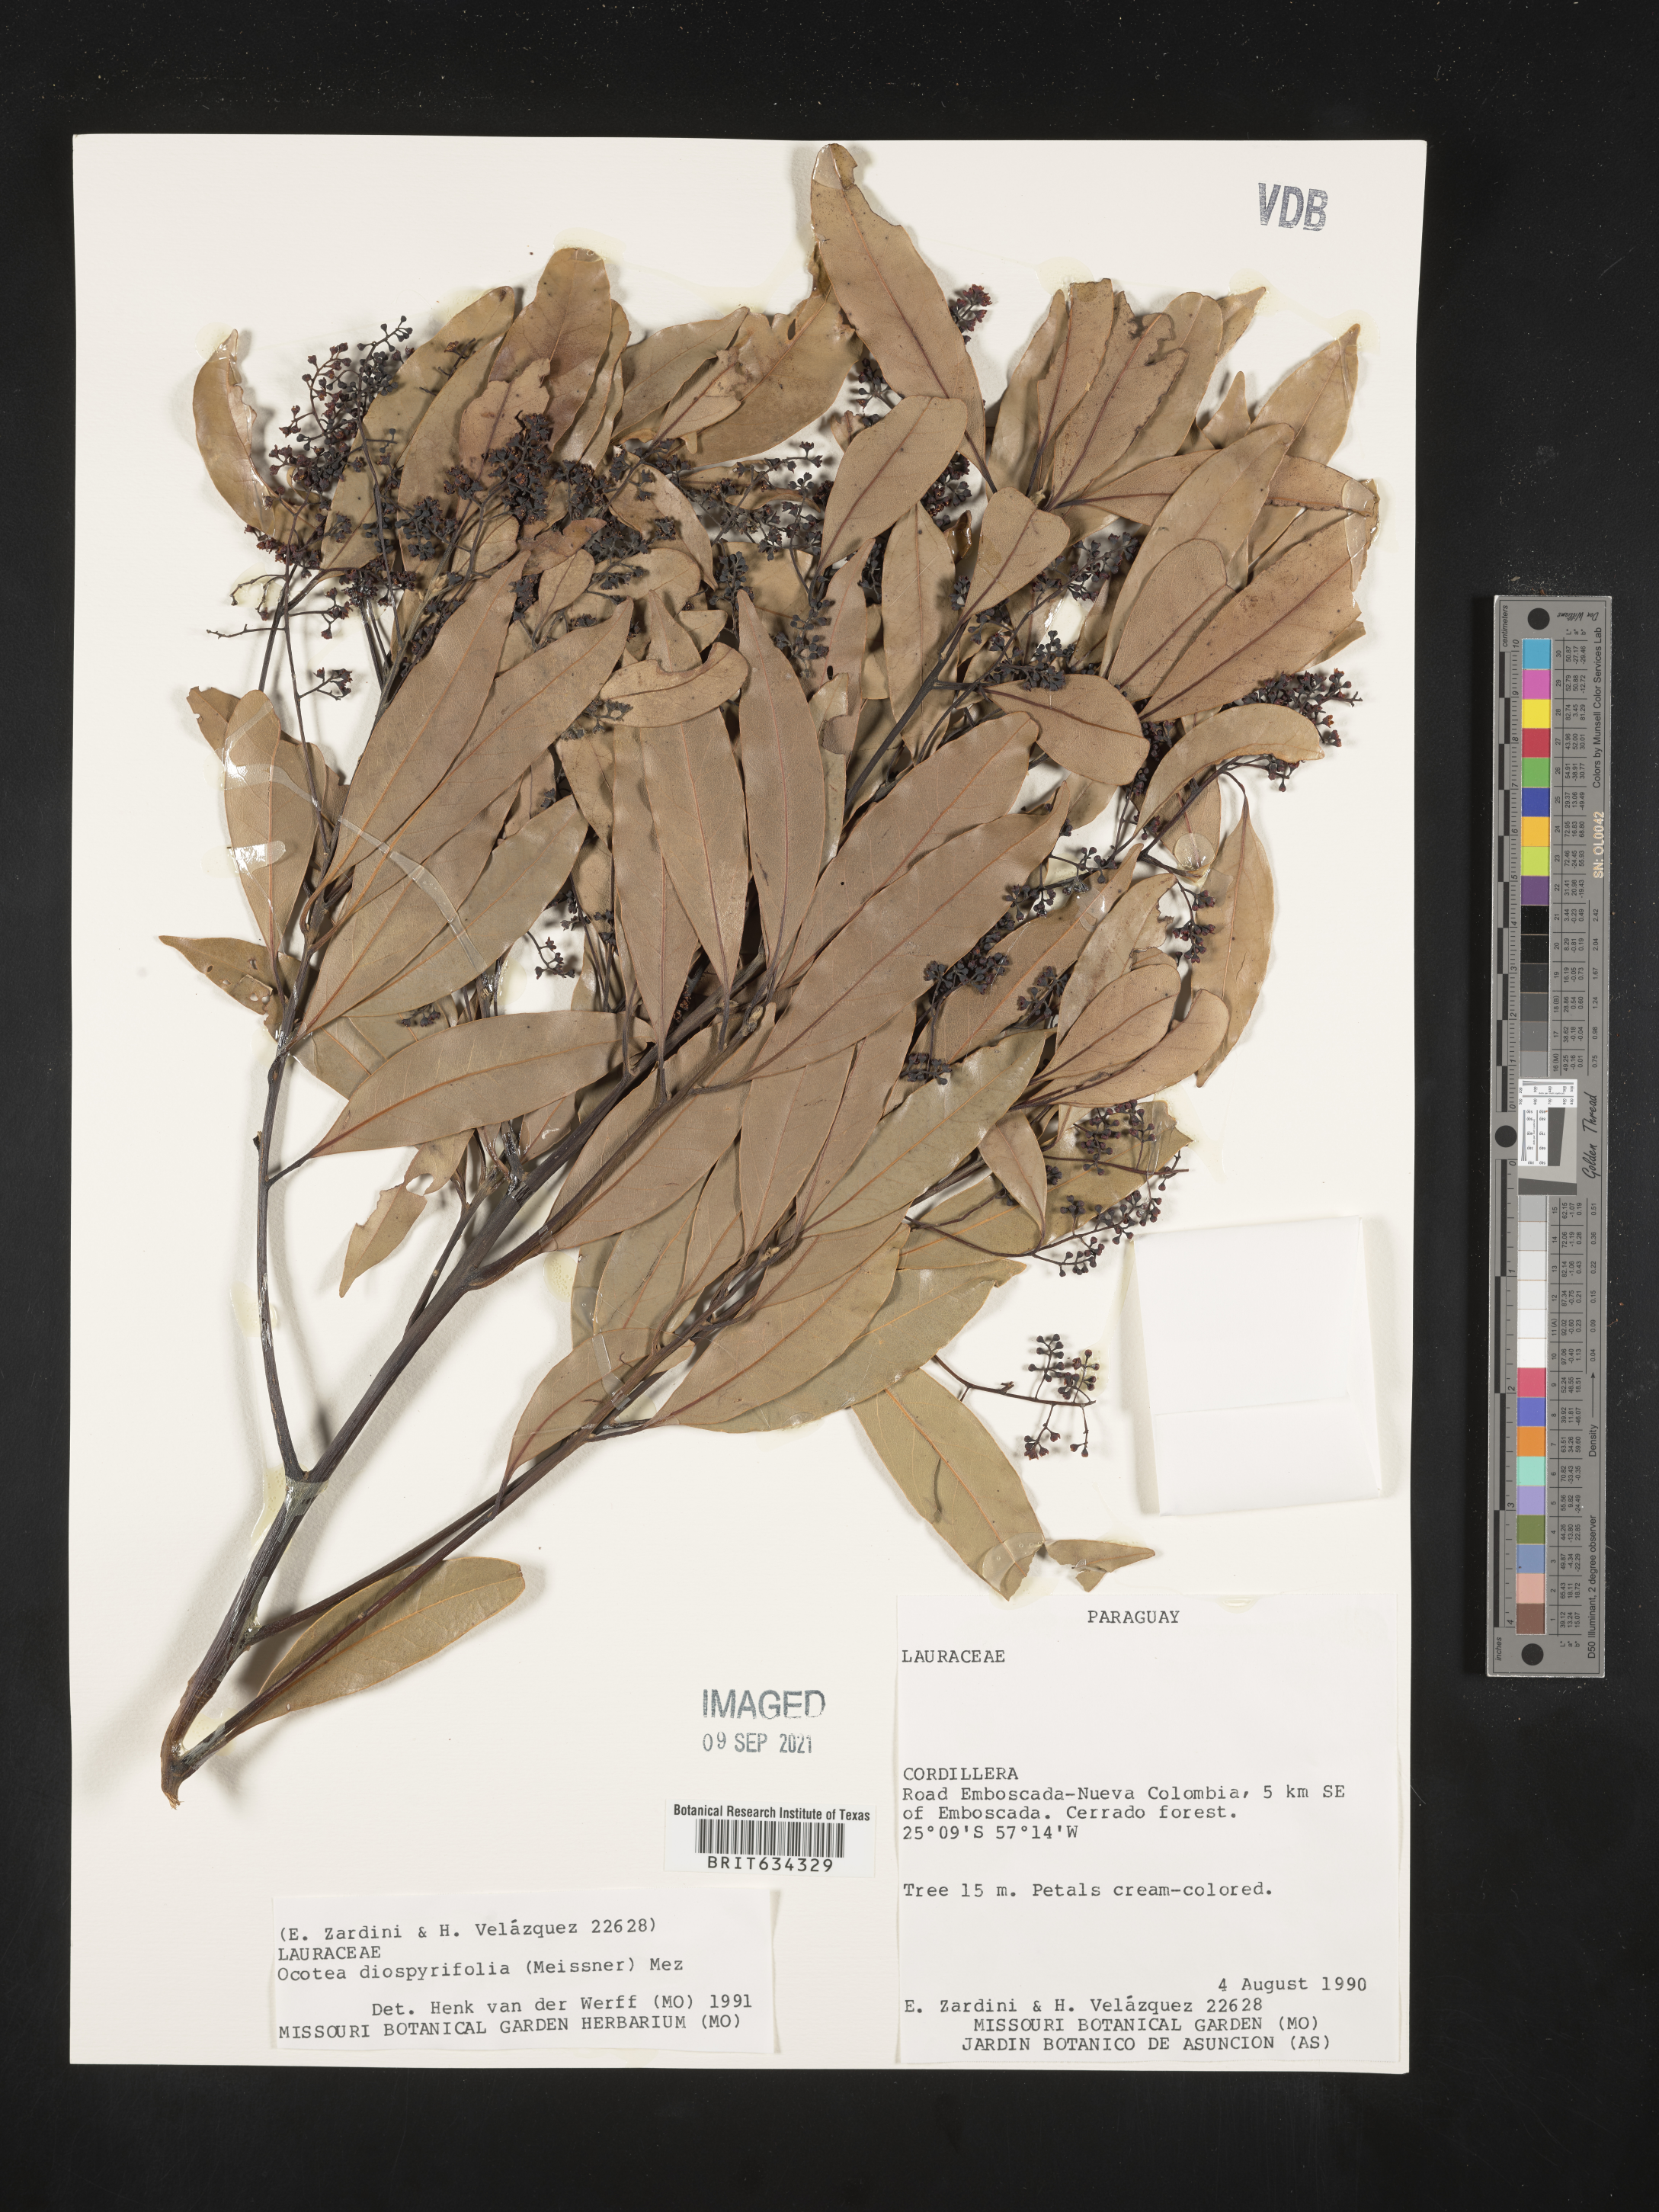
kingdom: Plantae
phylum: Tracheophyta
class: Magnoliopsida
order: Laurales
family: Lauraceae
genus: Ocotea
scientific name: Ocotea
